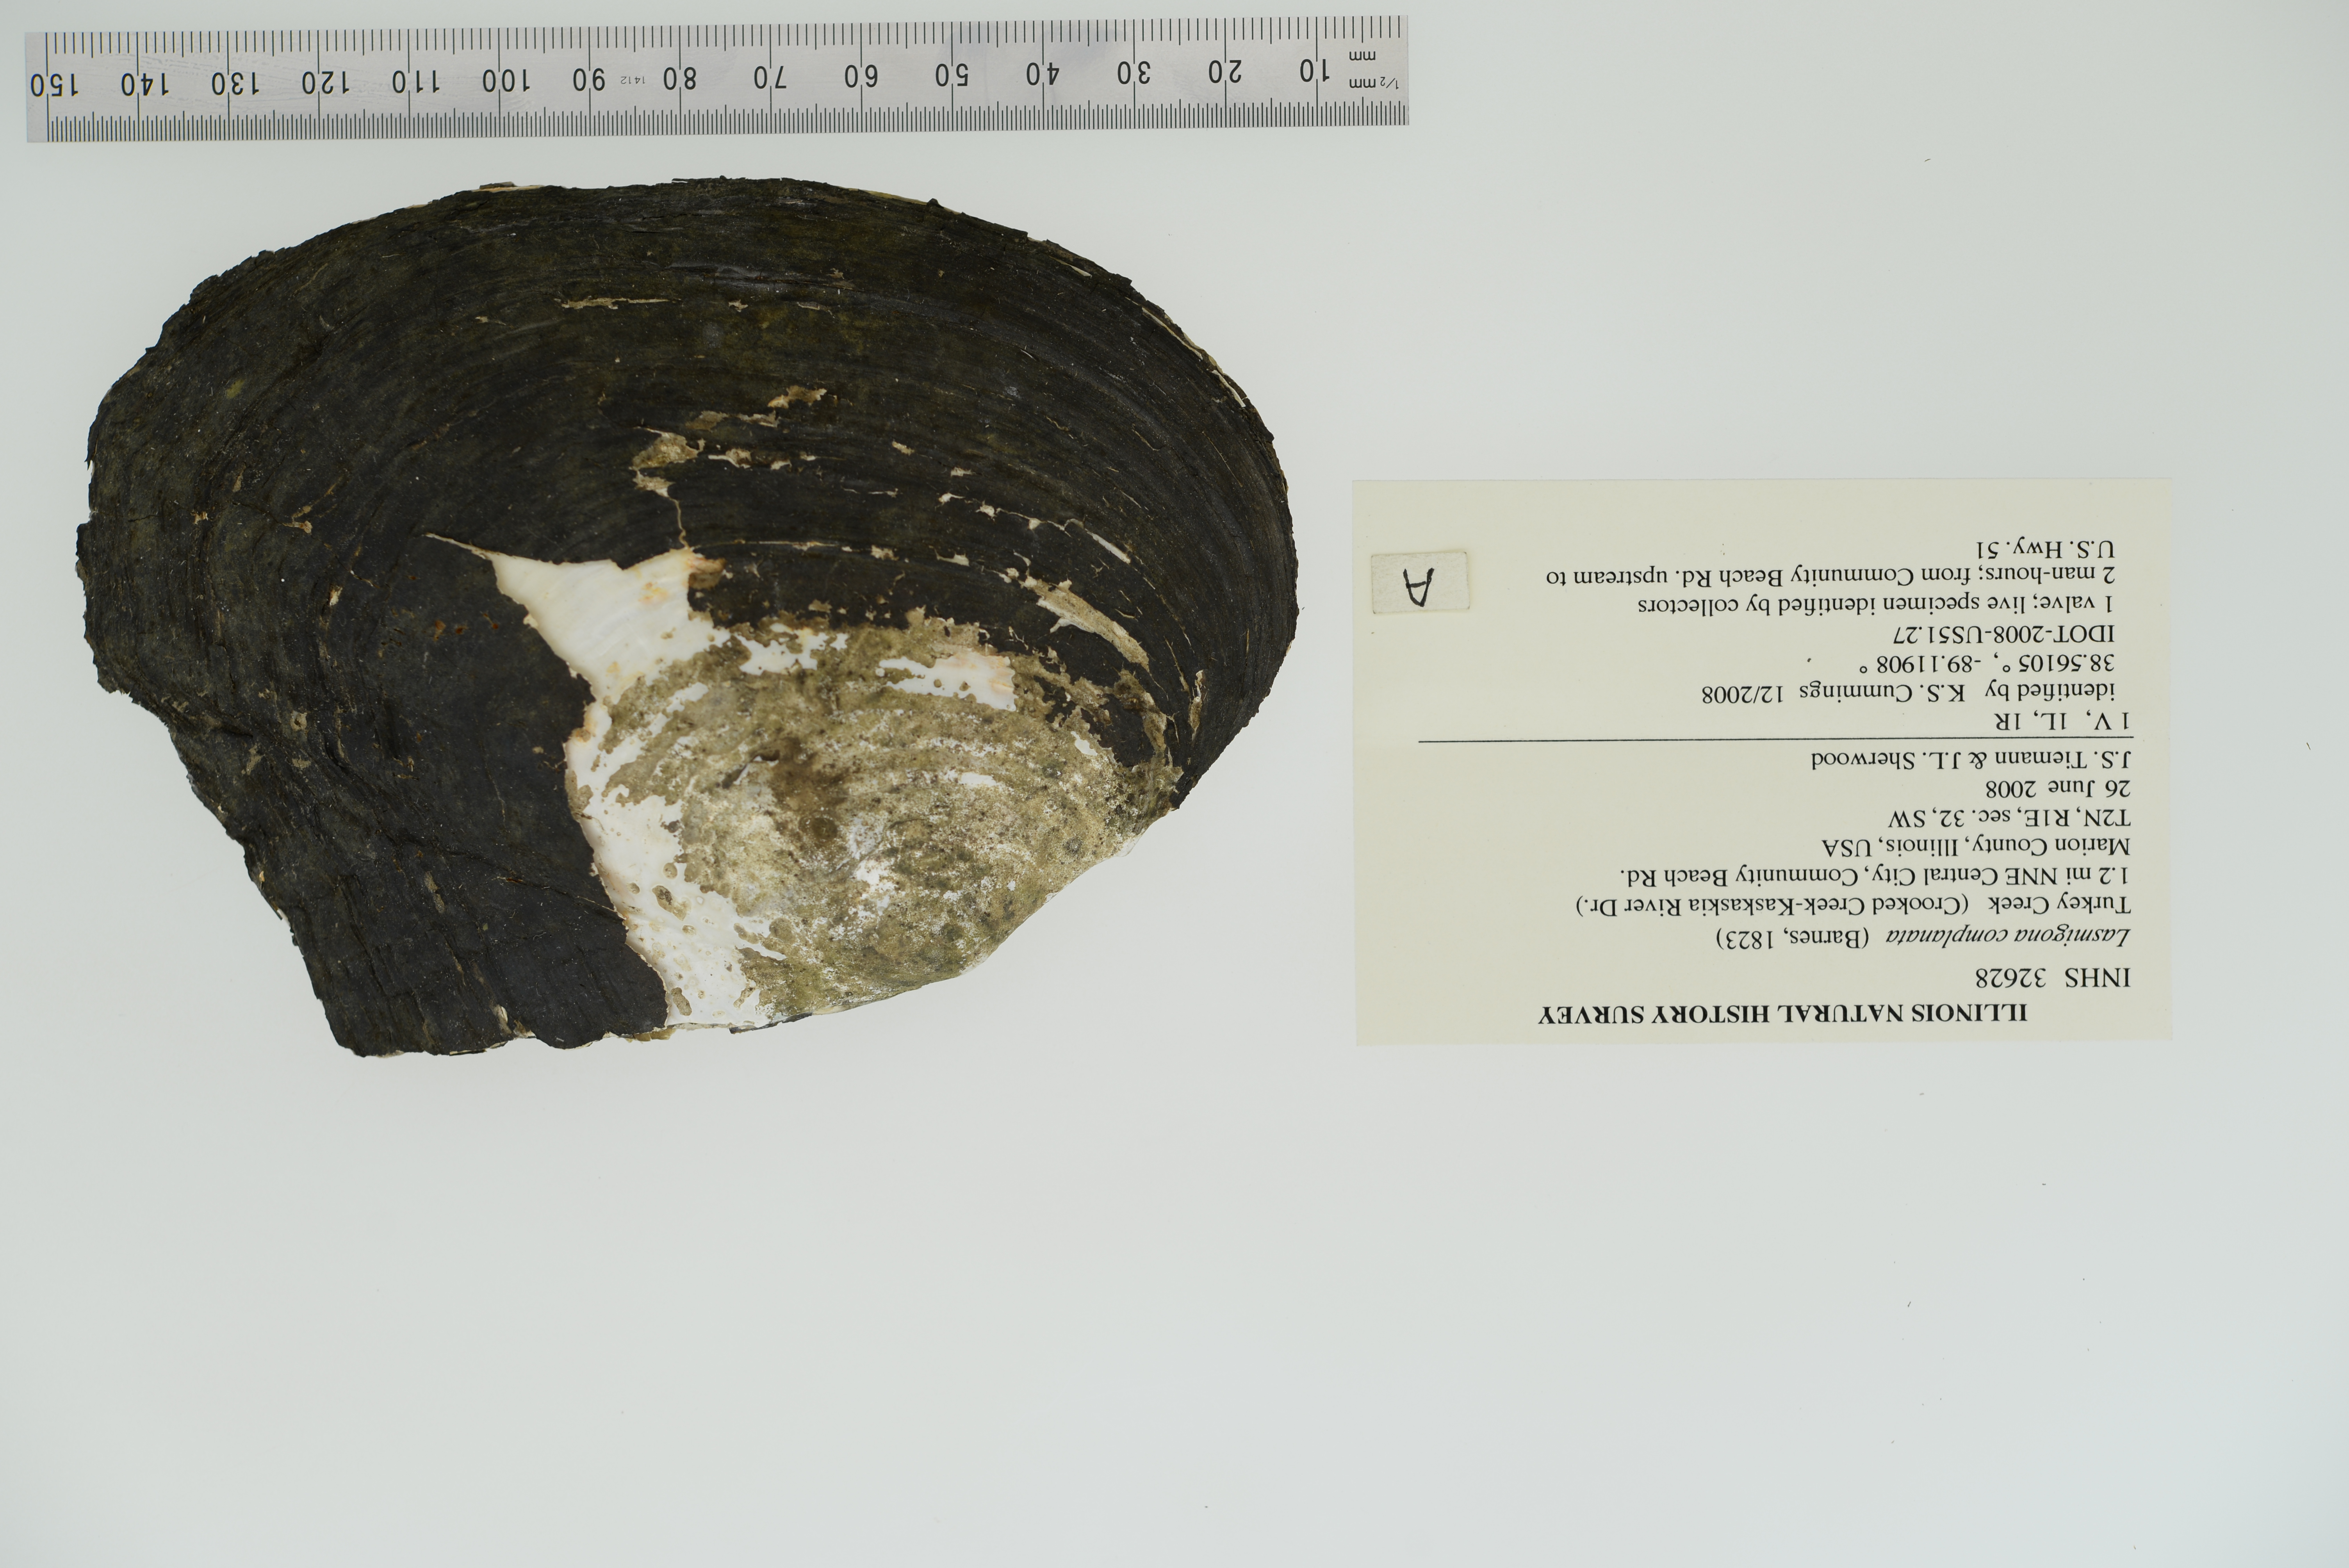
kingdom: Animalia
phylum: Mollusca
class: Bivalvia
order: Unionida
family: Unionidae
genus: Lasmigona
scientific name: Lasmigona complanata
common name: White heelsplitter
